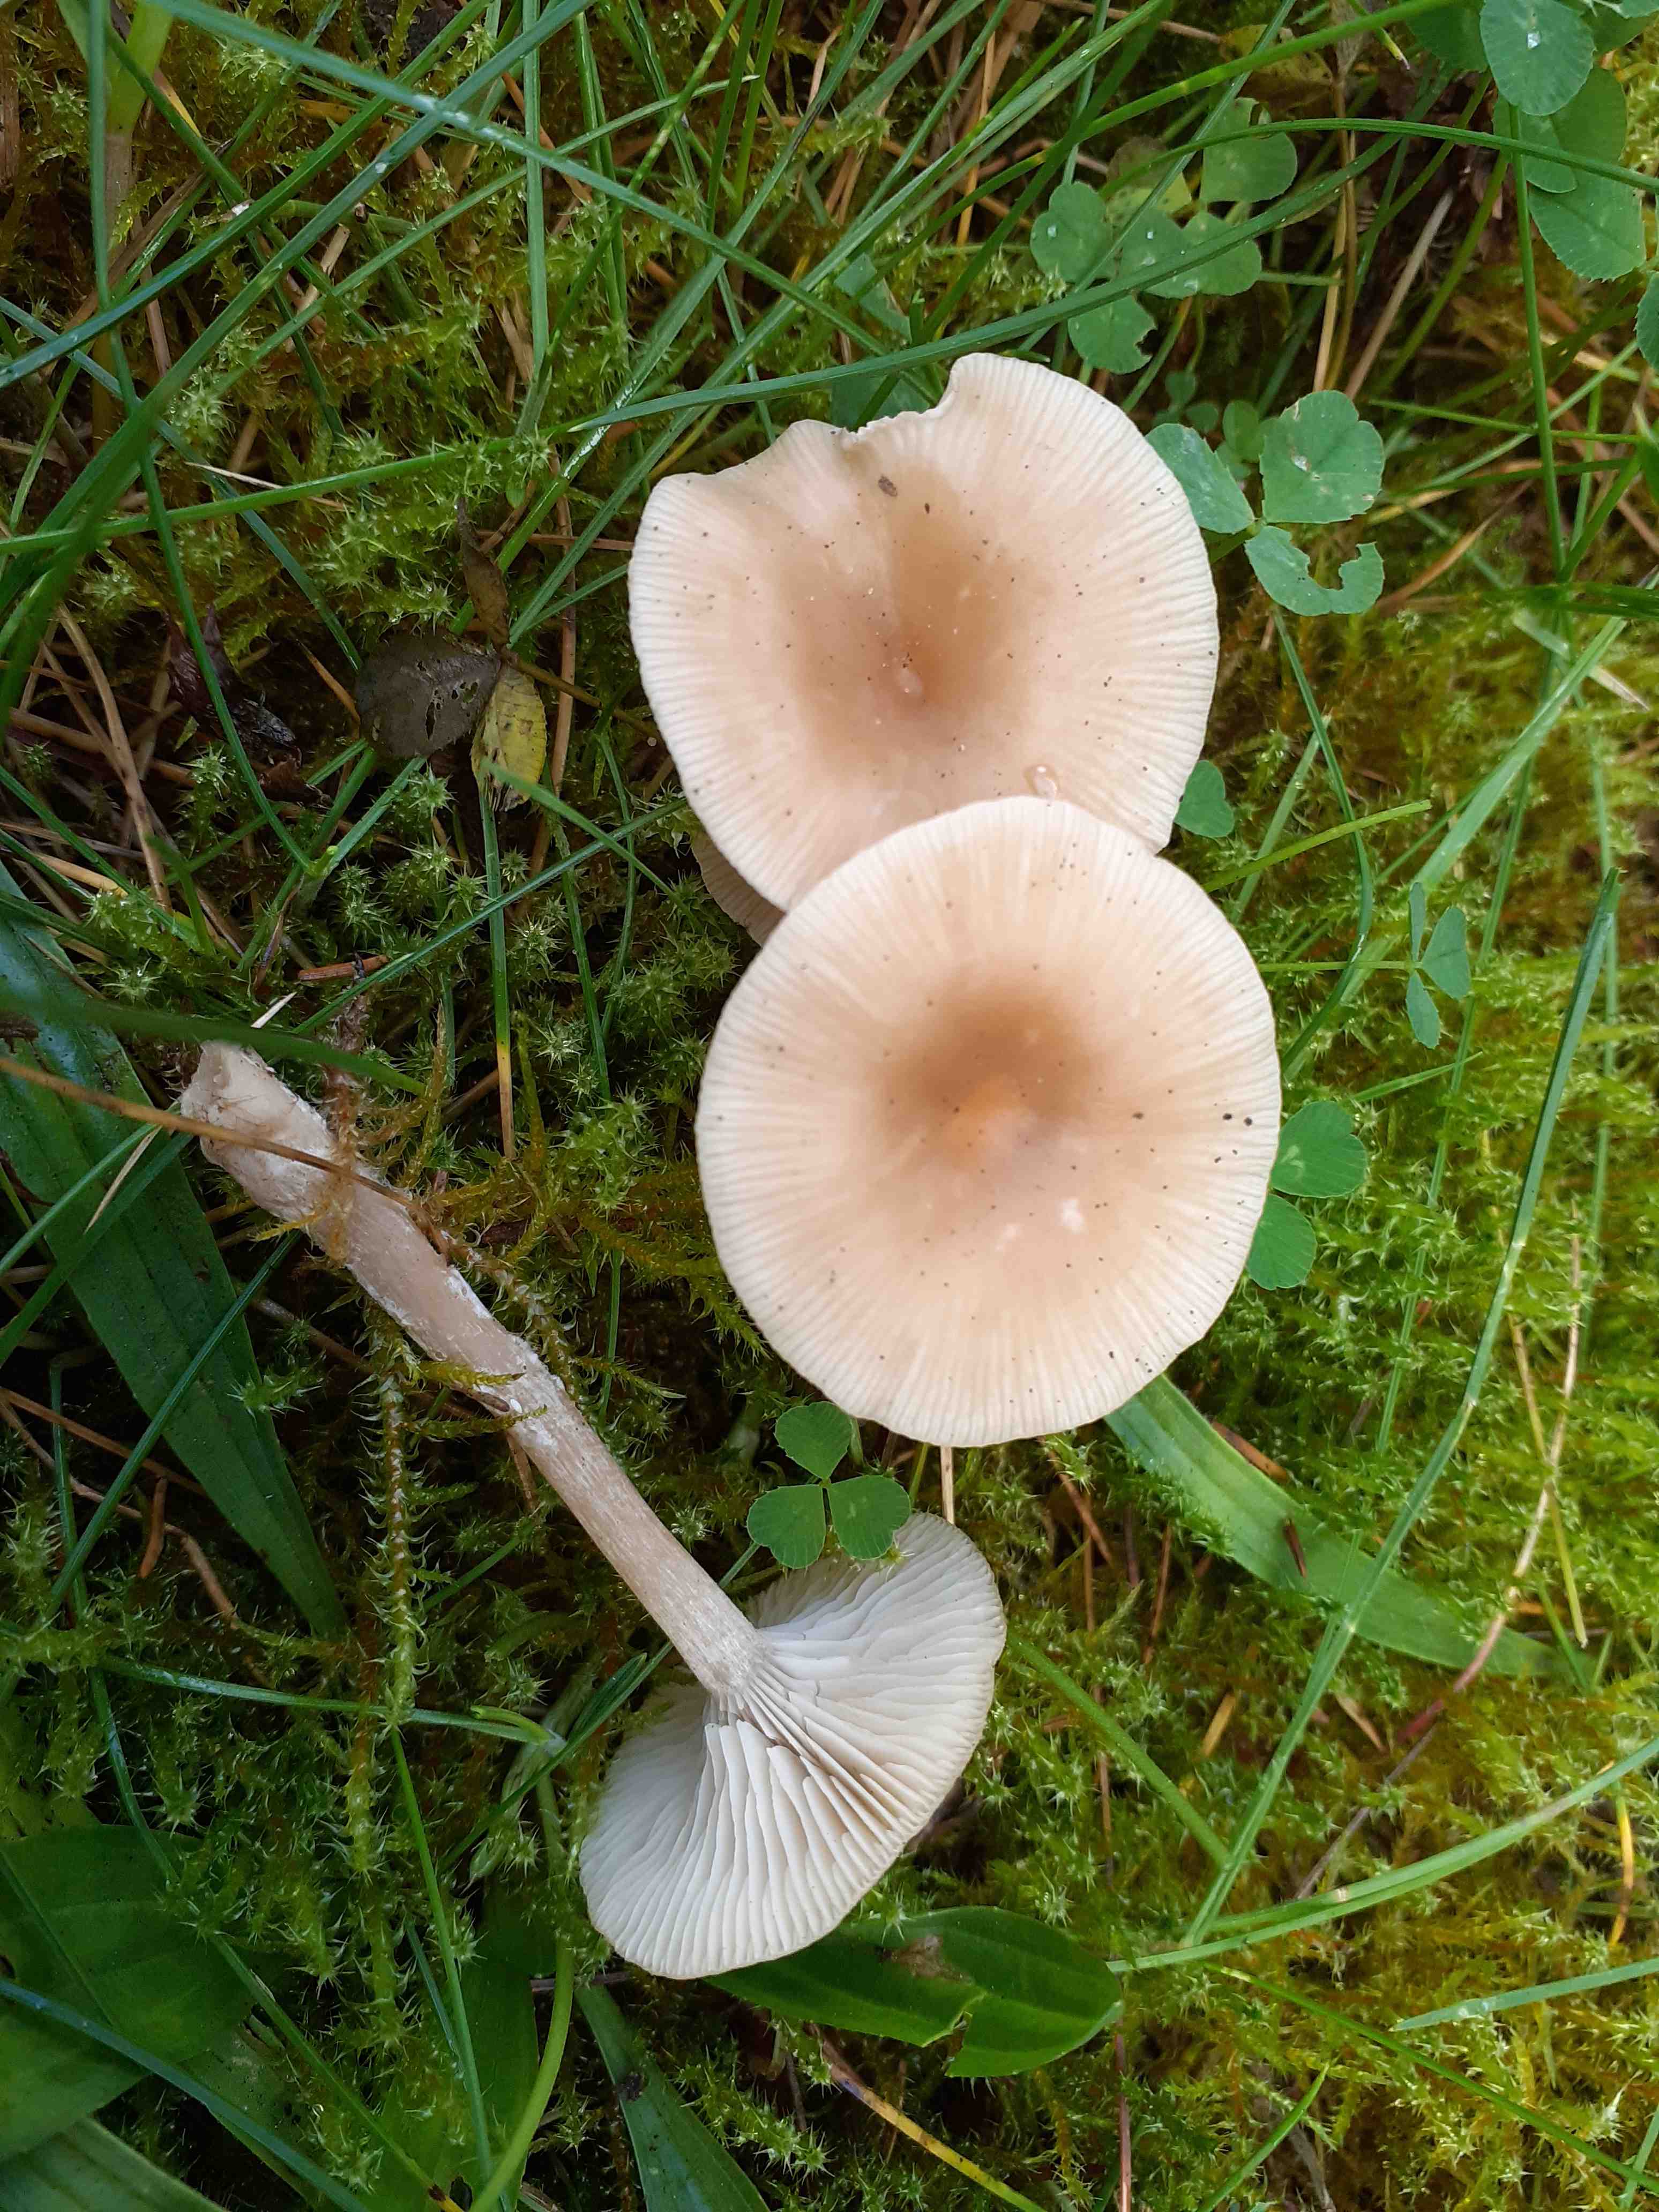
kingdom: Fungi
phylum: Basidiomycota
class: Agaricomycetes
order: Agaricales
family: Tricholomataceae
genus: Clitocybe
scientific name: Clitocybe fragrans
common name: vellugtende tragthat
